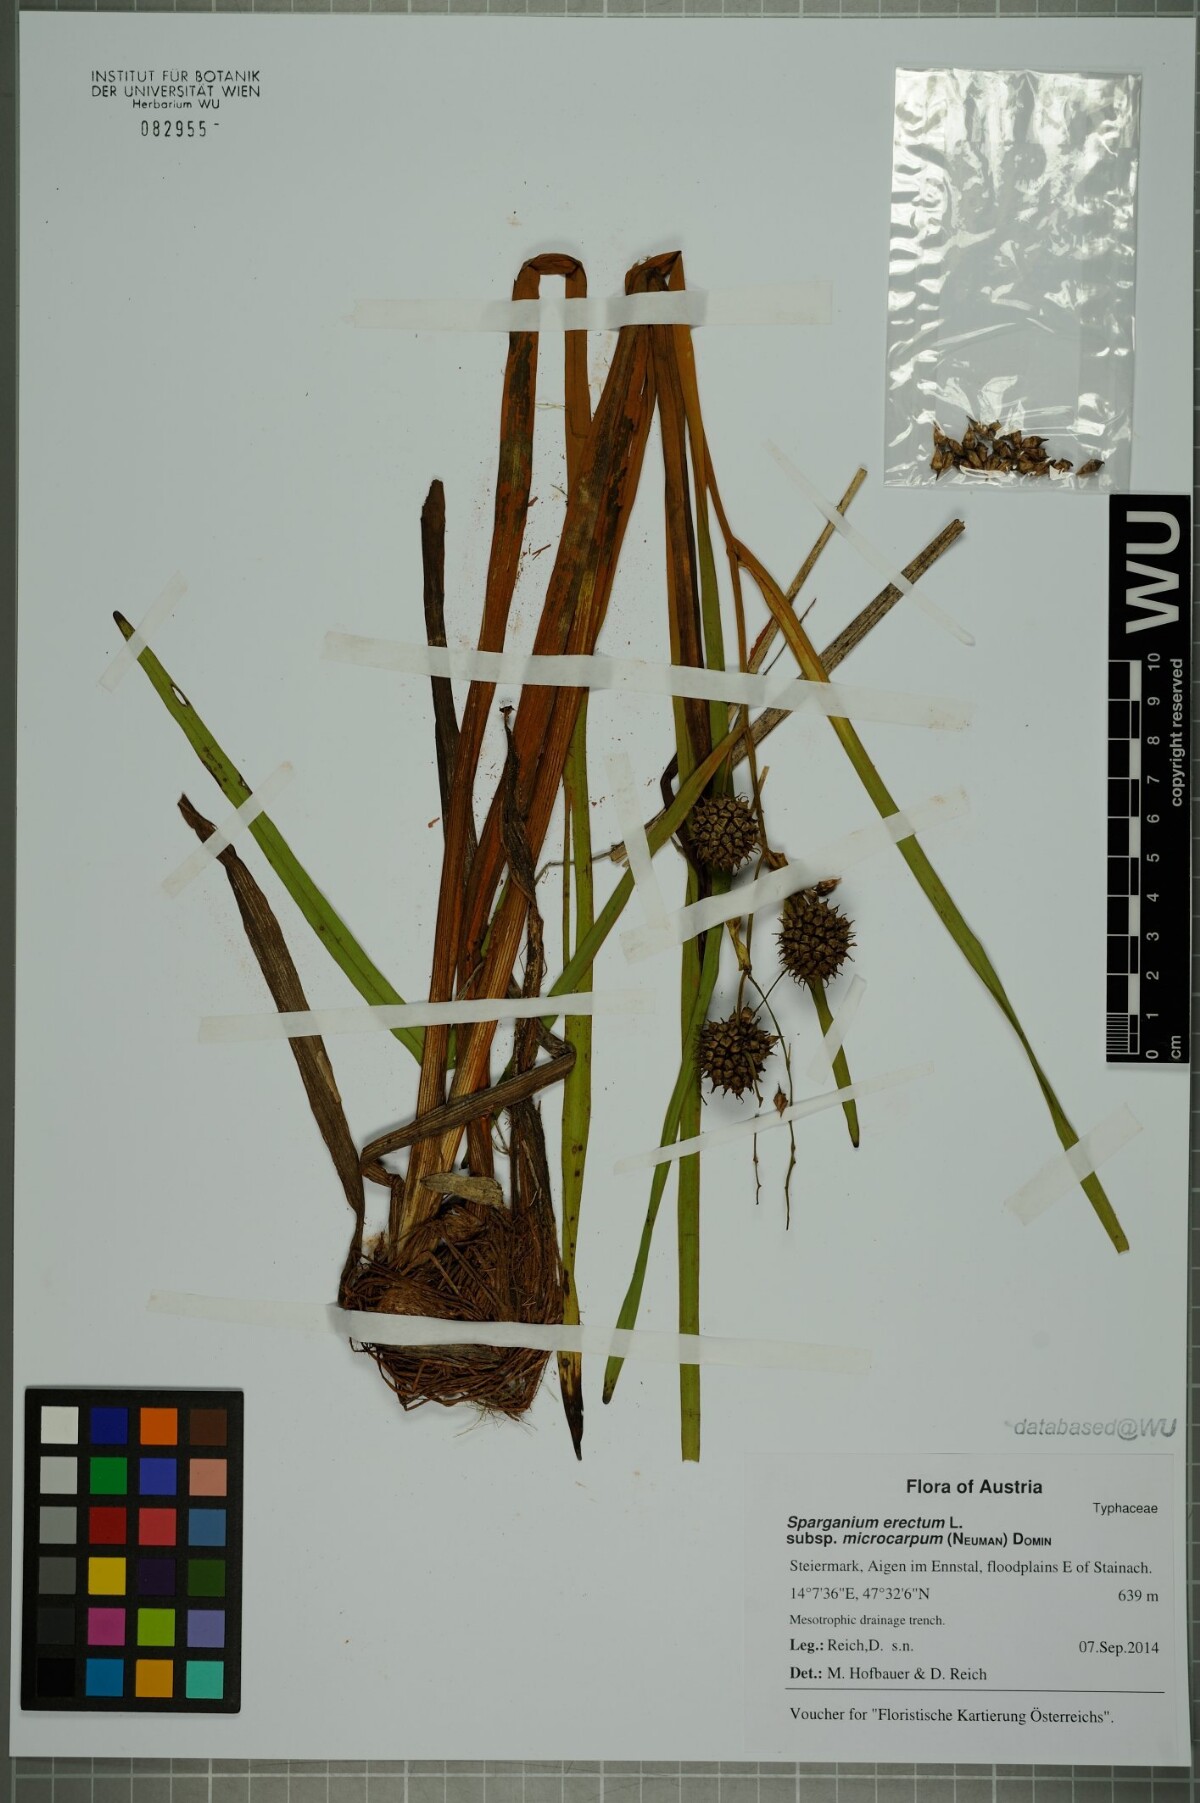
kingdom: Plantae
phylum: Tracheophyta
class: Liliopsida
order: Poales
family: Typhaceae
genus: Sparganium
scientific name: Sparganium erectum
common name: Branched bur-reed
